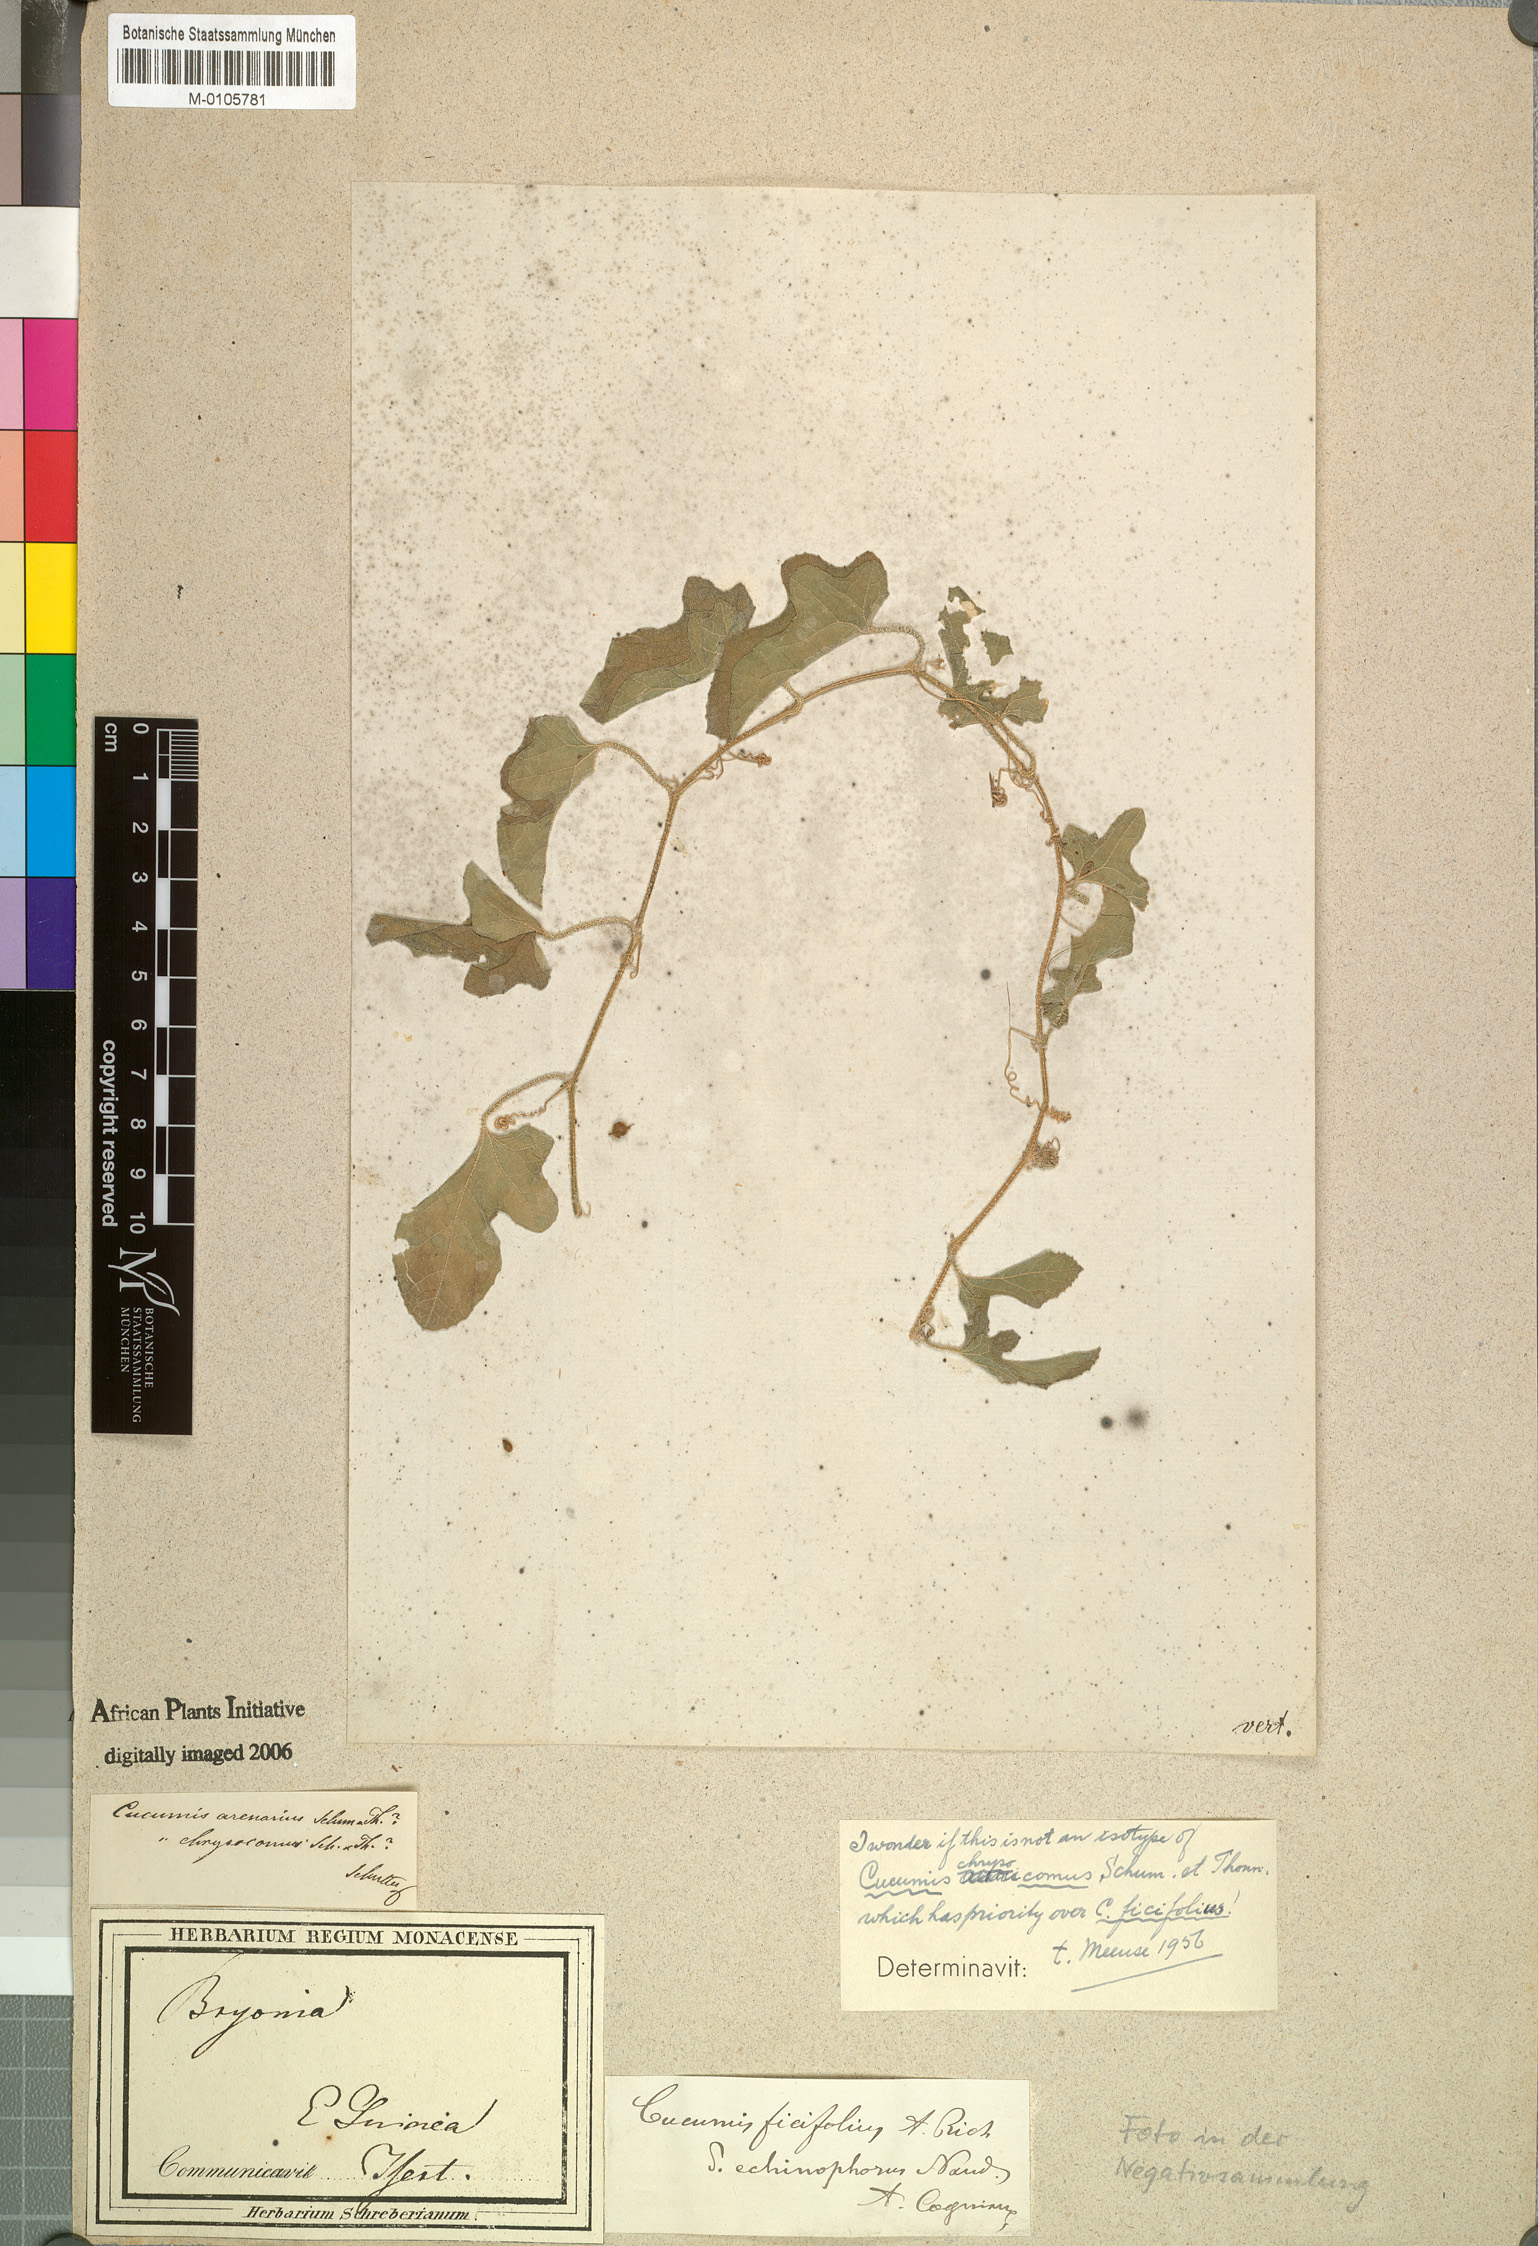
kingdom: Plantae
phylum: Tracheophyta
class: Magnoliopsida
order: Cucurbitales
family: Cucurbitaceae
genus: Cucumis
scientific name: Cucumis ficifolius
